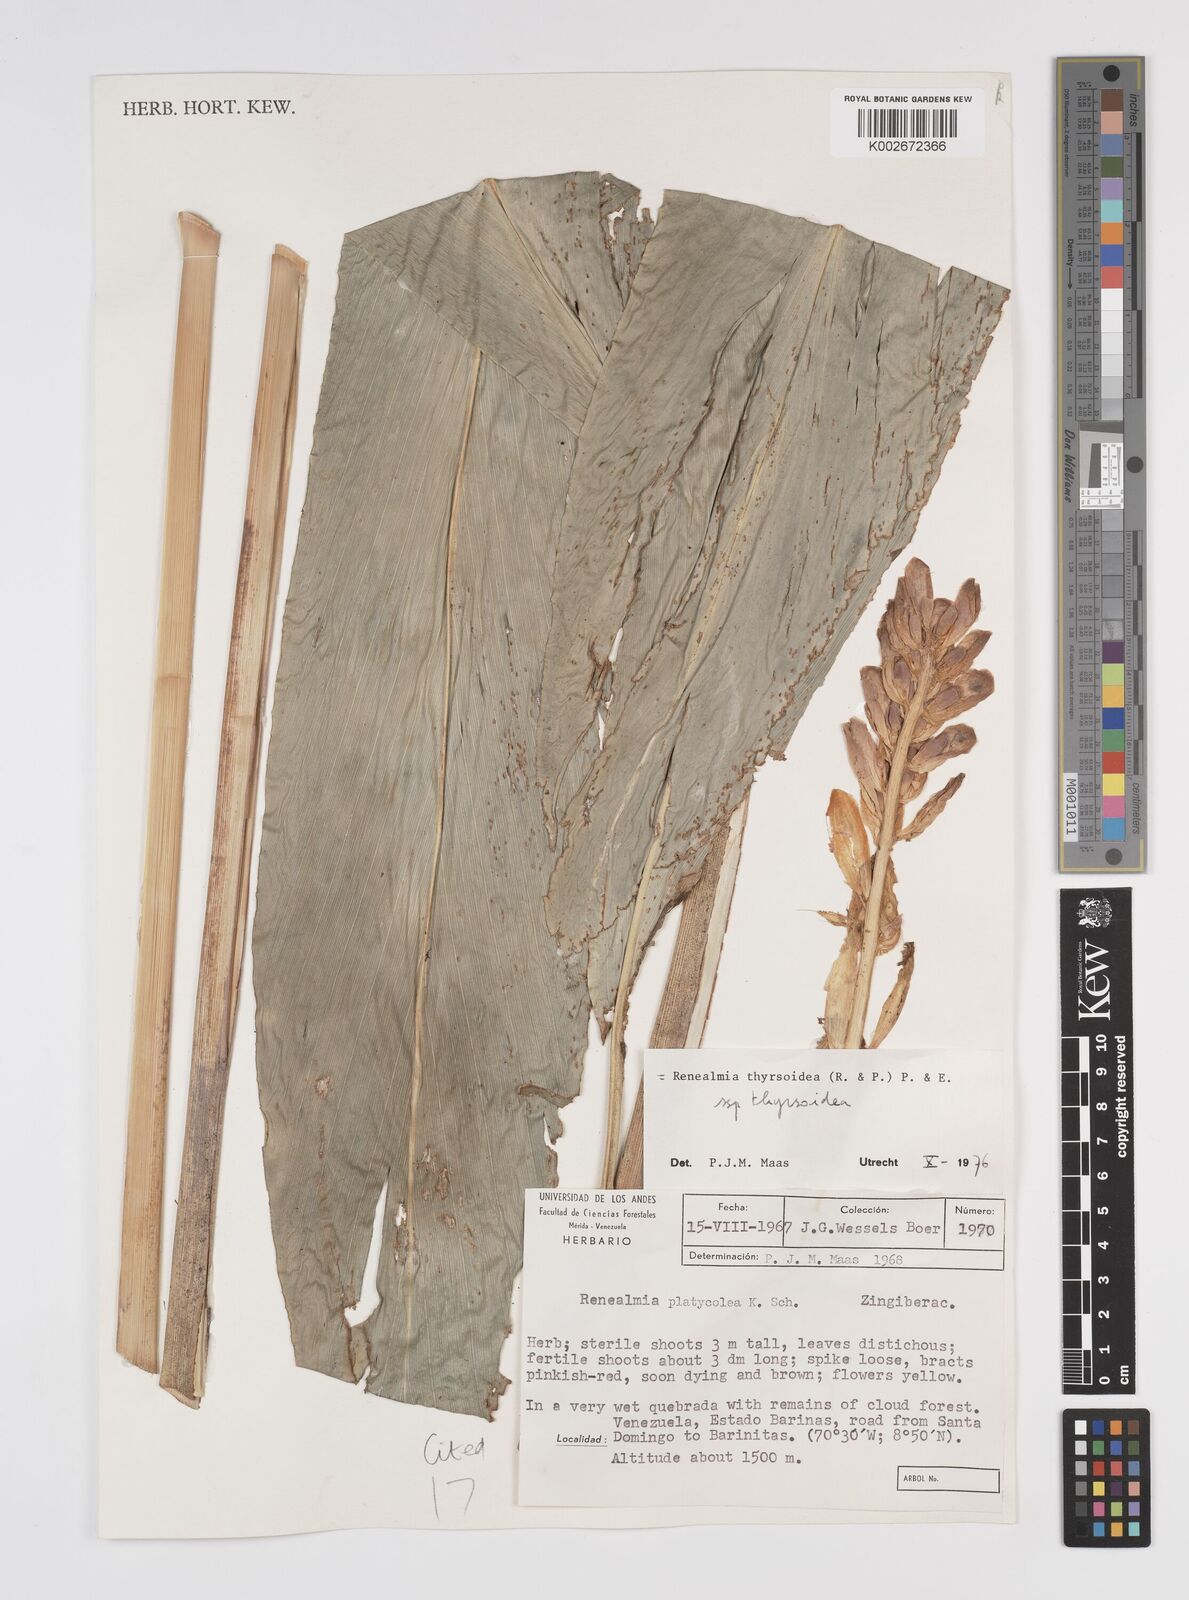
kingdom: Plantae
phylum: Tracheophyta
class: Liliopsida
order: Zingiberales
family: Zingiberaceae
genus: Renealmia
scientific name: Renealmia thyrsoidea
